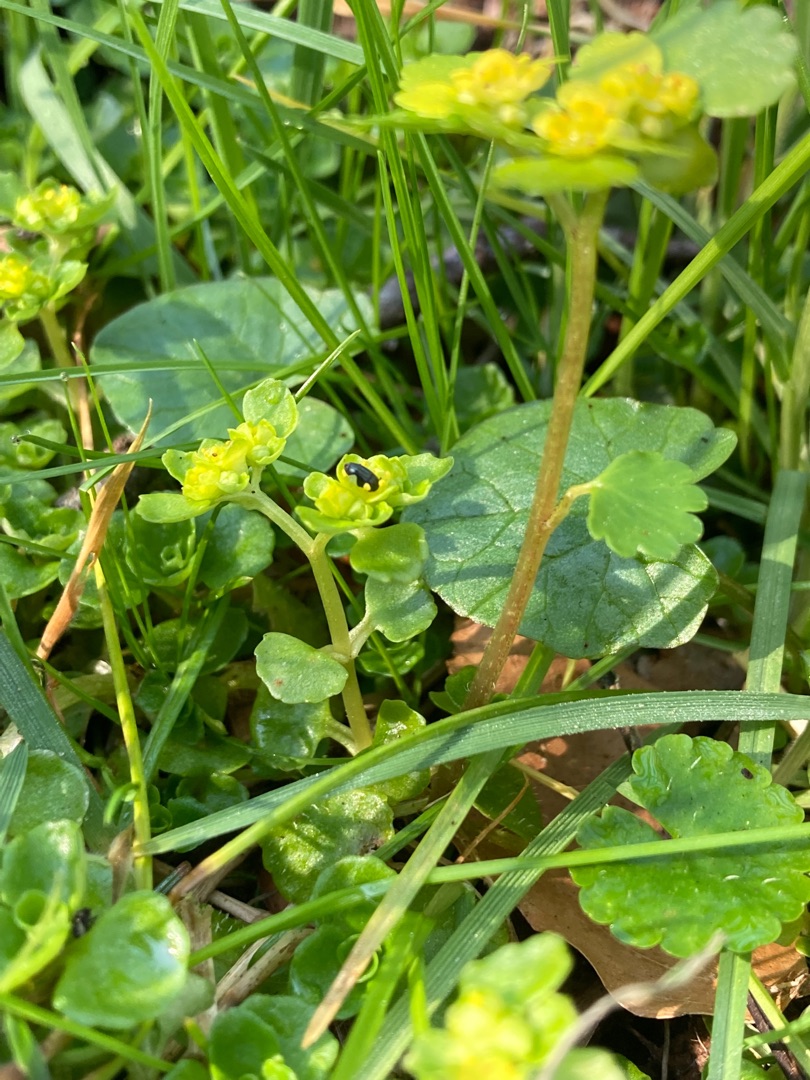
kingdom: Plantae
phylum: Tracheophyta
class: Magnoliopsida
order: Saxifragales
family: Saxifragaceae
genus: Chrysosplenium
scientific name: Chrysosplenium oppositifolium
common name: Småbladet milturt
